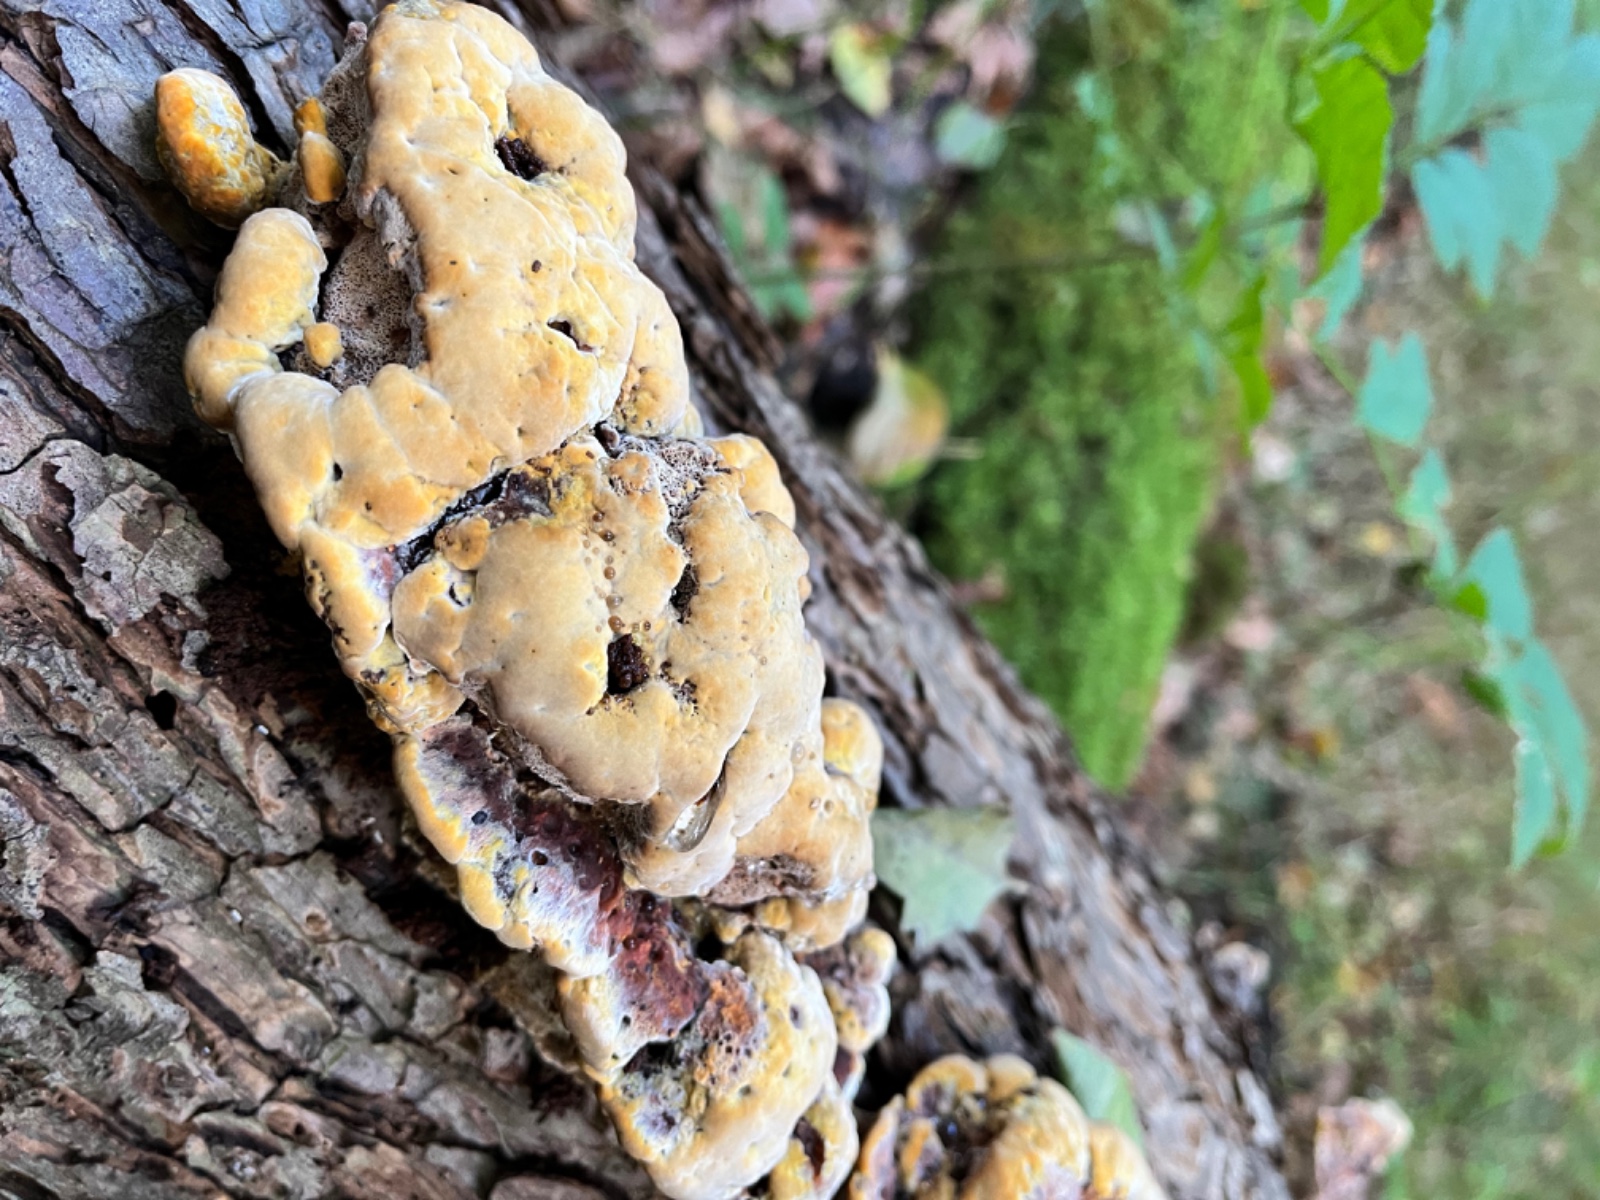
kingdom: Fungi
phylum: Basidiomycota
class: Agaricomycetes
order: Polyporales
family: Laetiporaceae
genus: Phaeolus
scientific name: Phaeolus schweinitzii
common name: brunporesvamp
